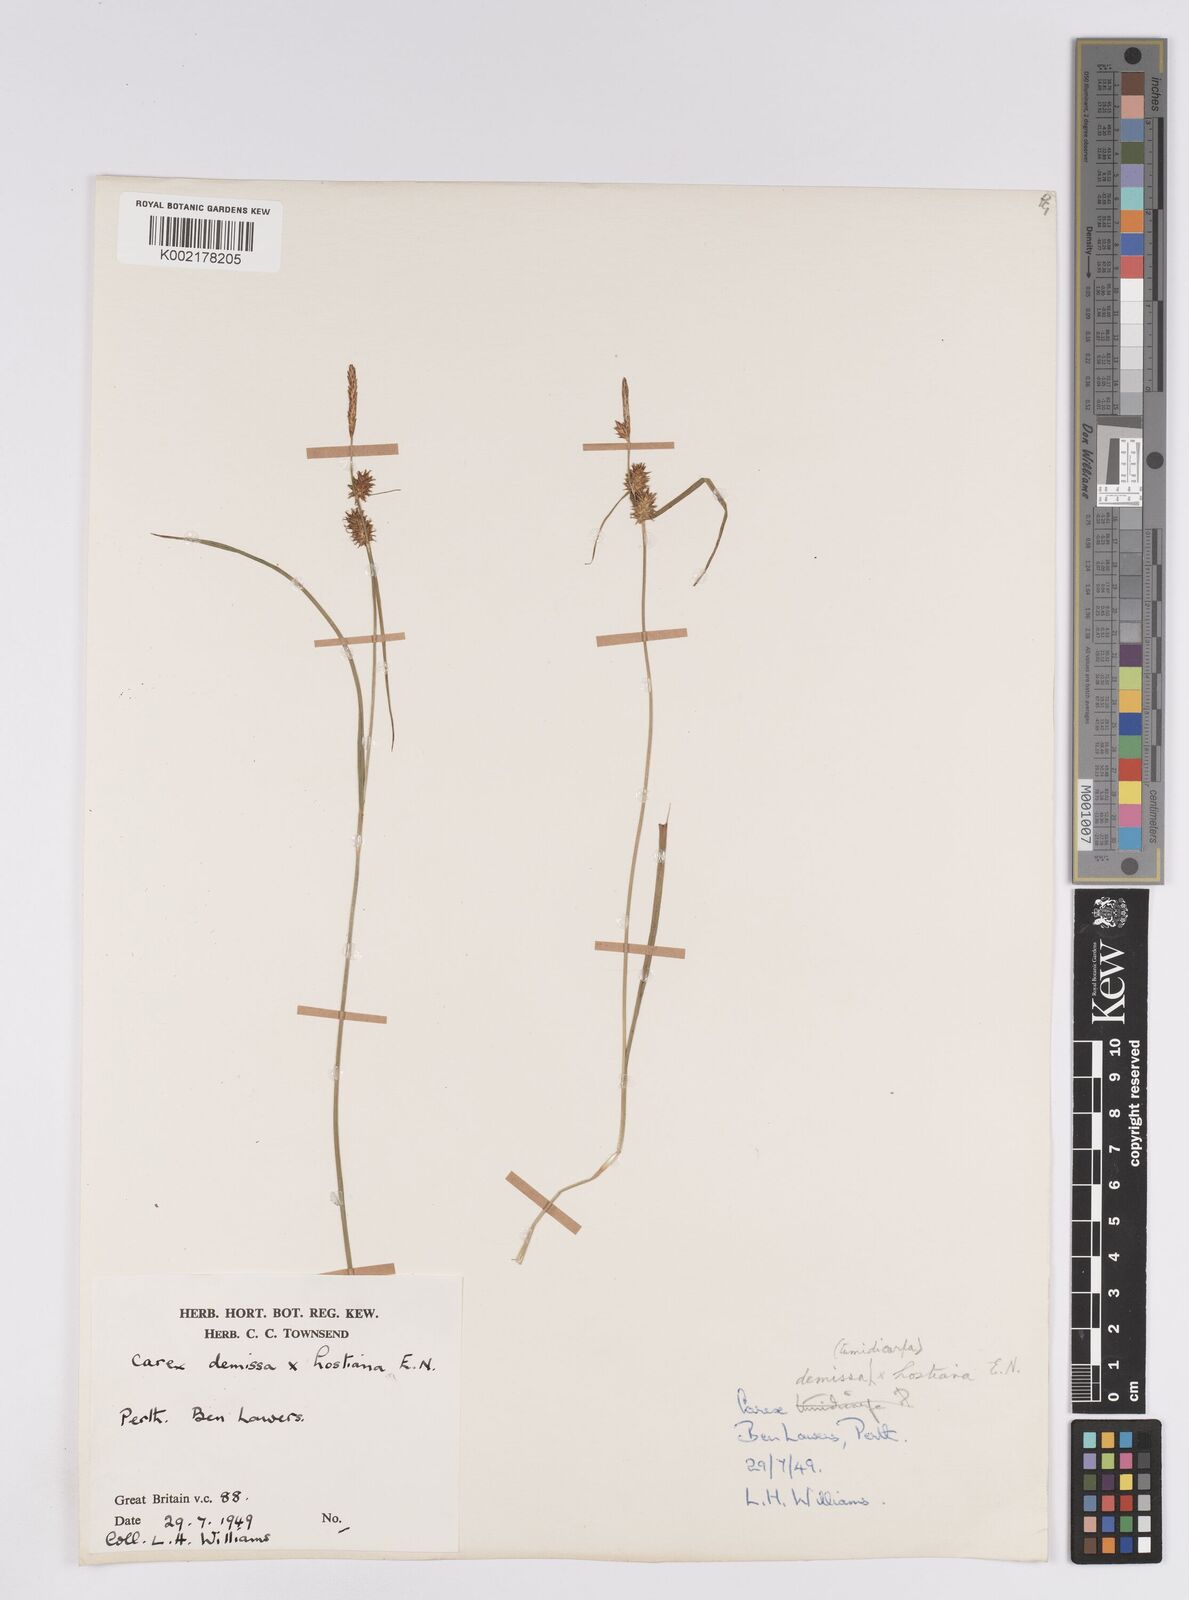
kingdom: Plantae
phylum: Tracheophyta
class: Liliopsida
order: Poales
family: Cyperaceae
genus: Carex
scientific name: Carex demissa
